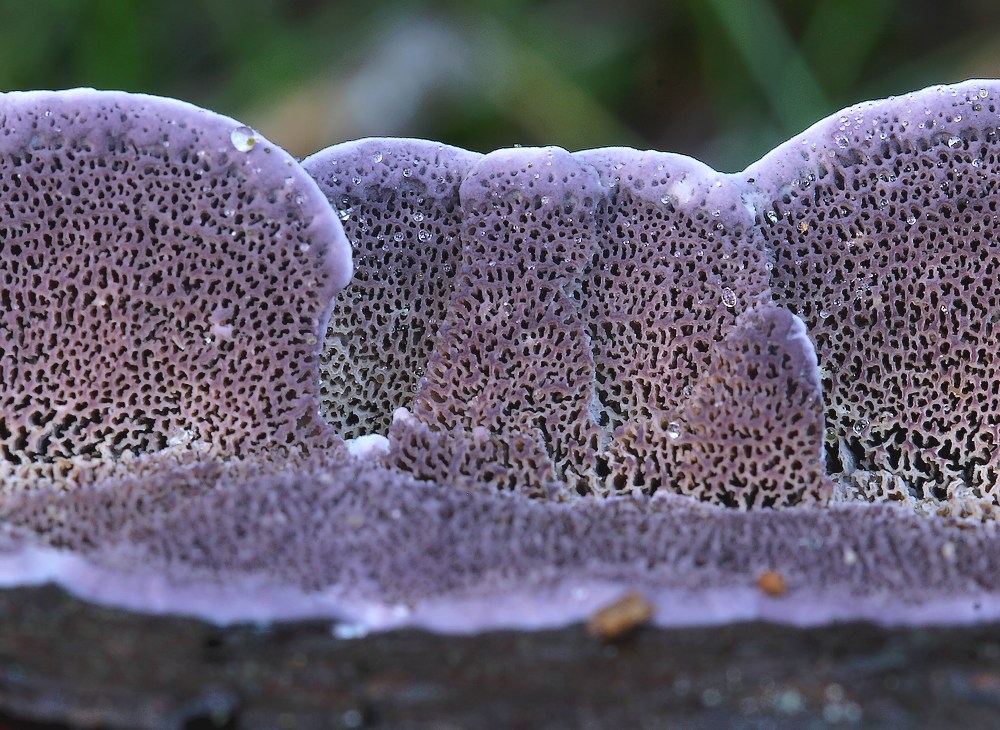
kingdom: Fungi
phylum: Basidiomycota
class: Agaricomycetes
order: Hymenochaetales
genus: Trichaptum
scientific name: Trichaptum abietinum
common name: almindelig violporesvamp
